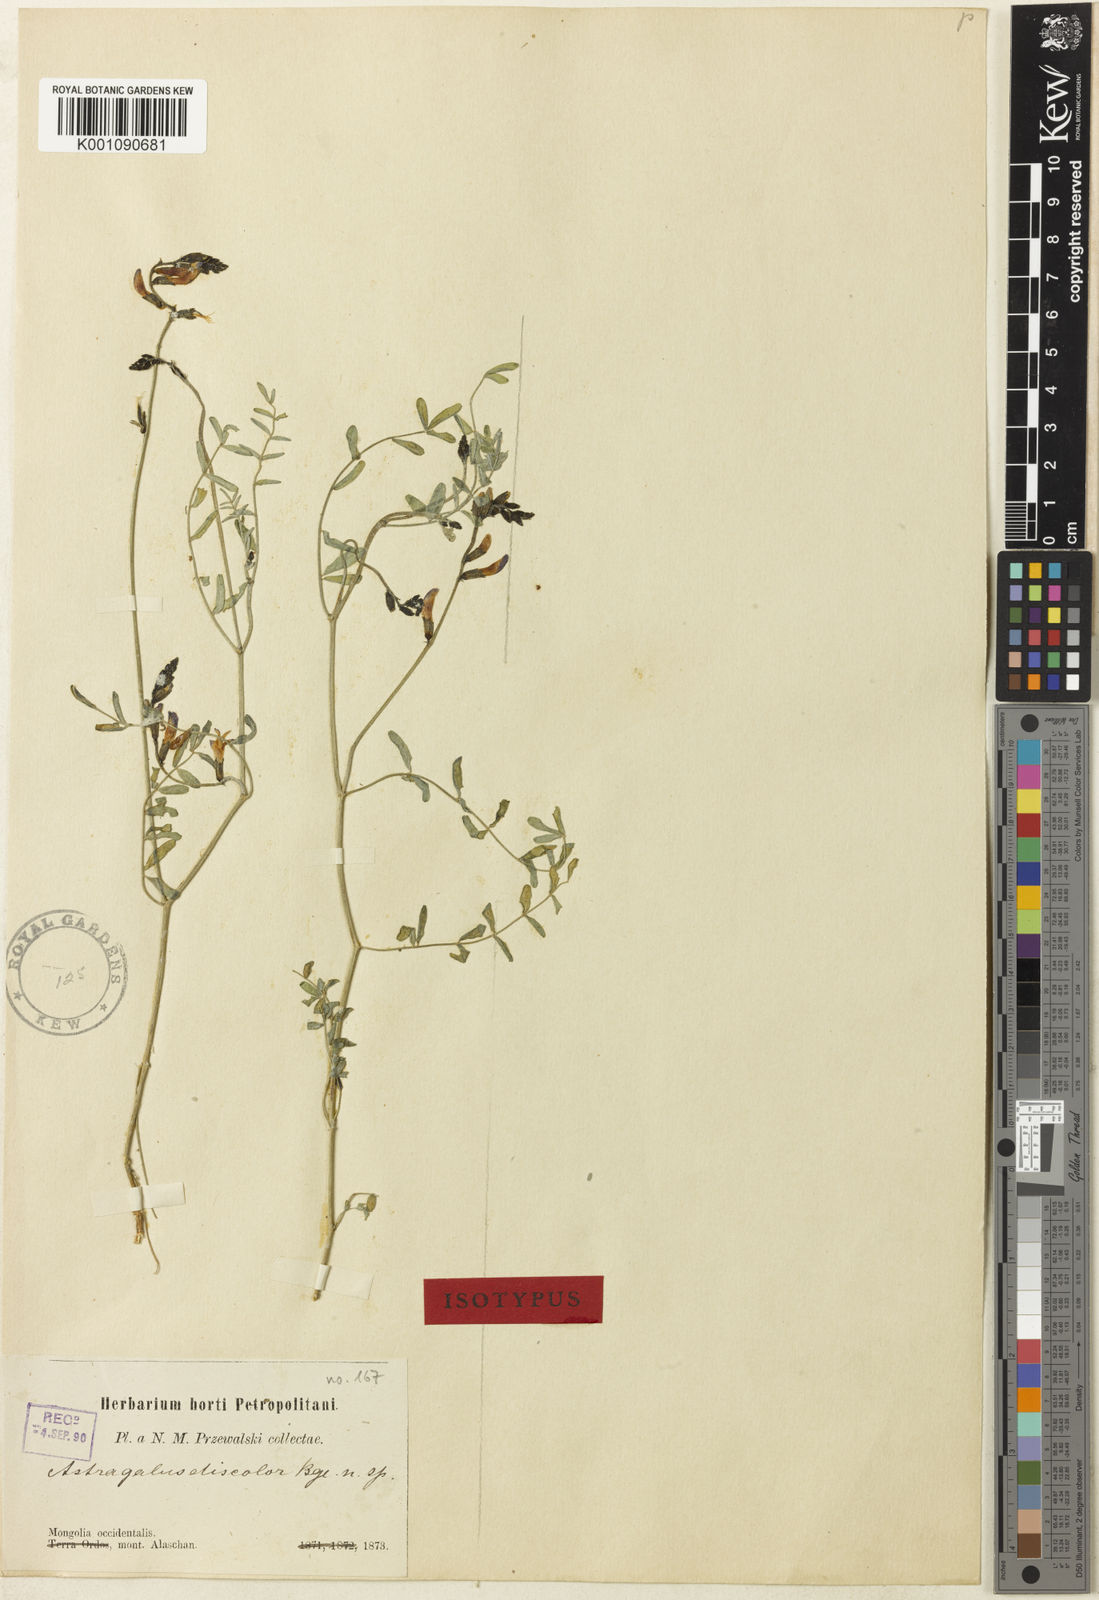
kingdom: Plantae
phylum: Tracheophyta
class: Magnoliopsida
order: Fabales
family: Fabaceae
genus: Astragalus
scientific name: Astragalus
